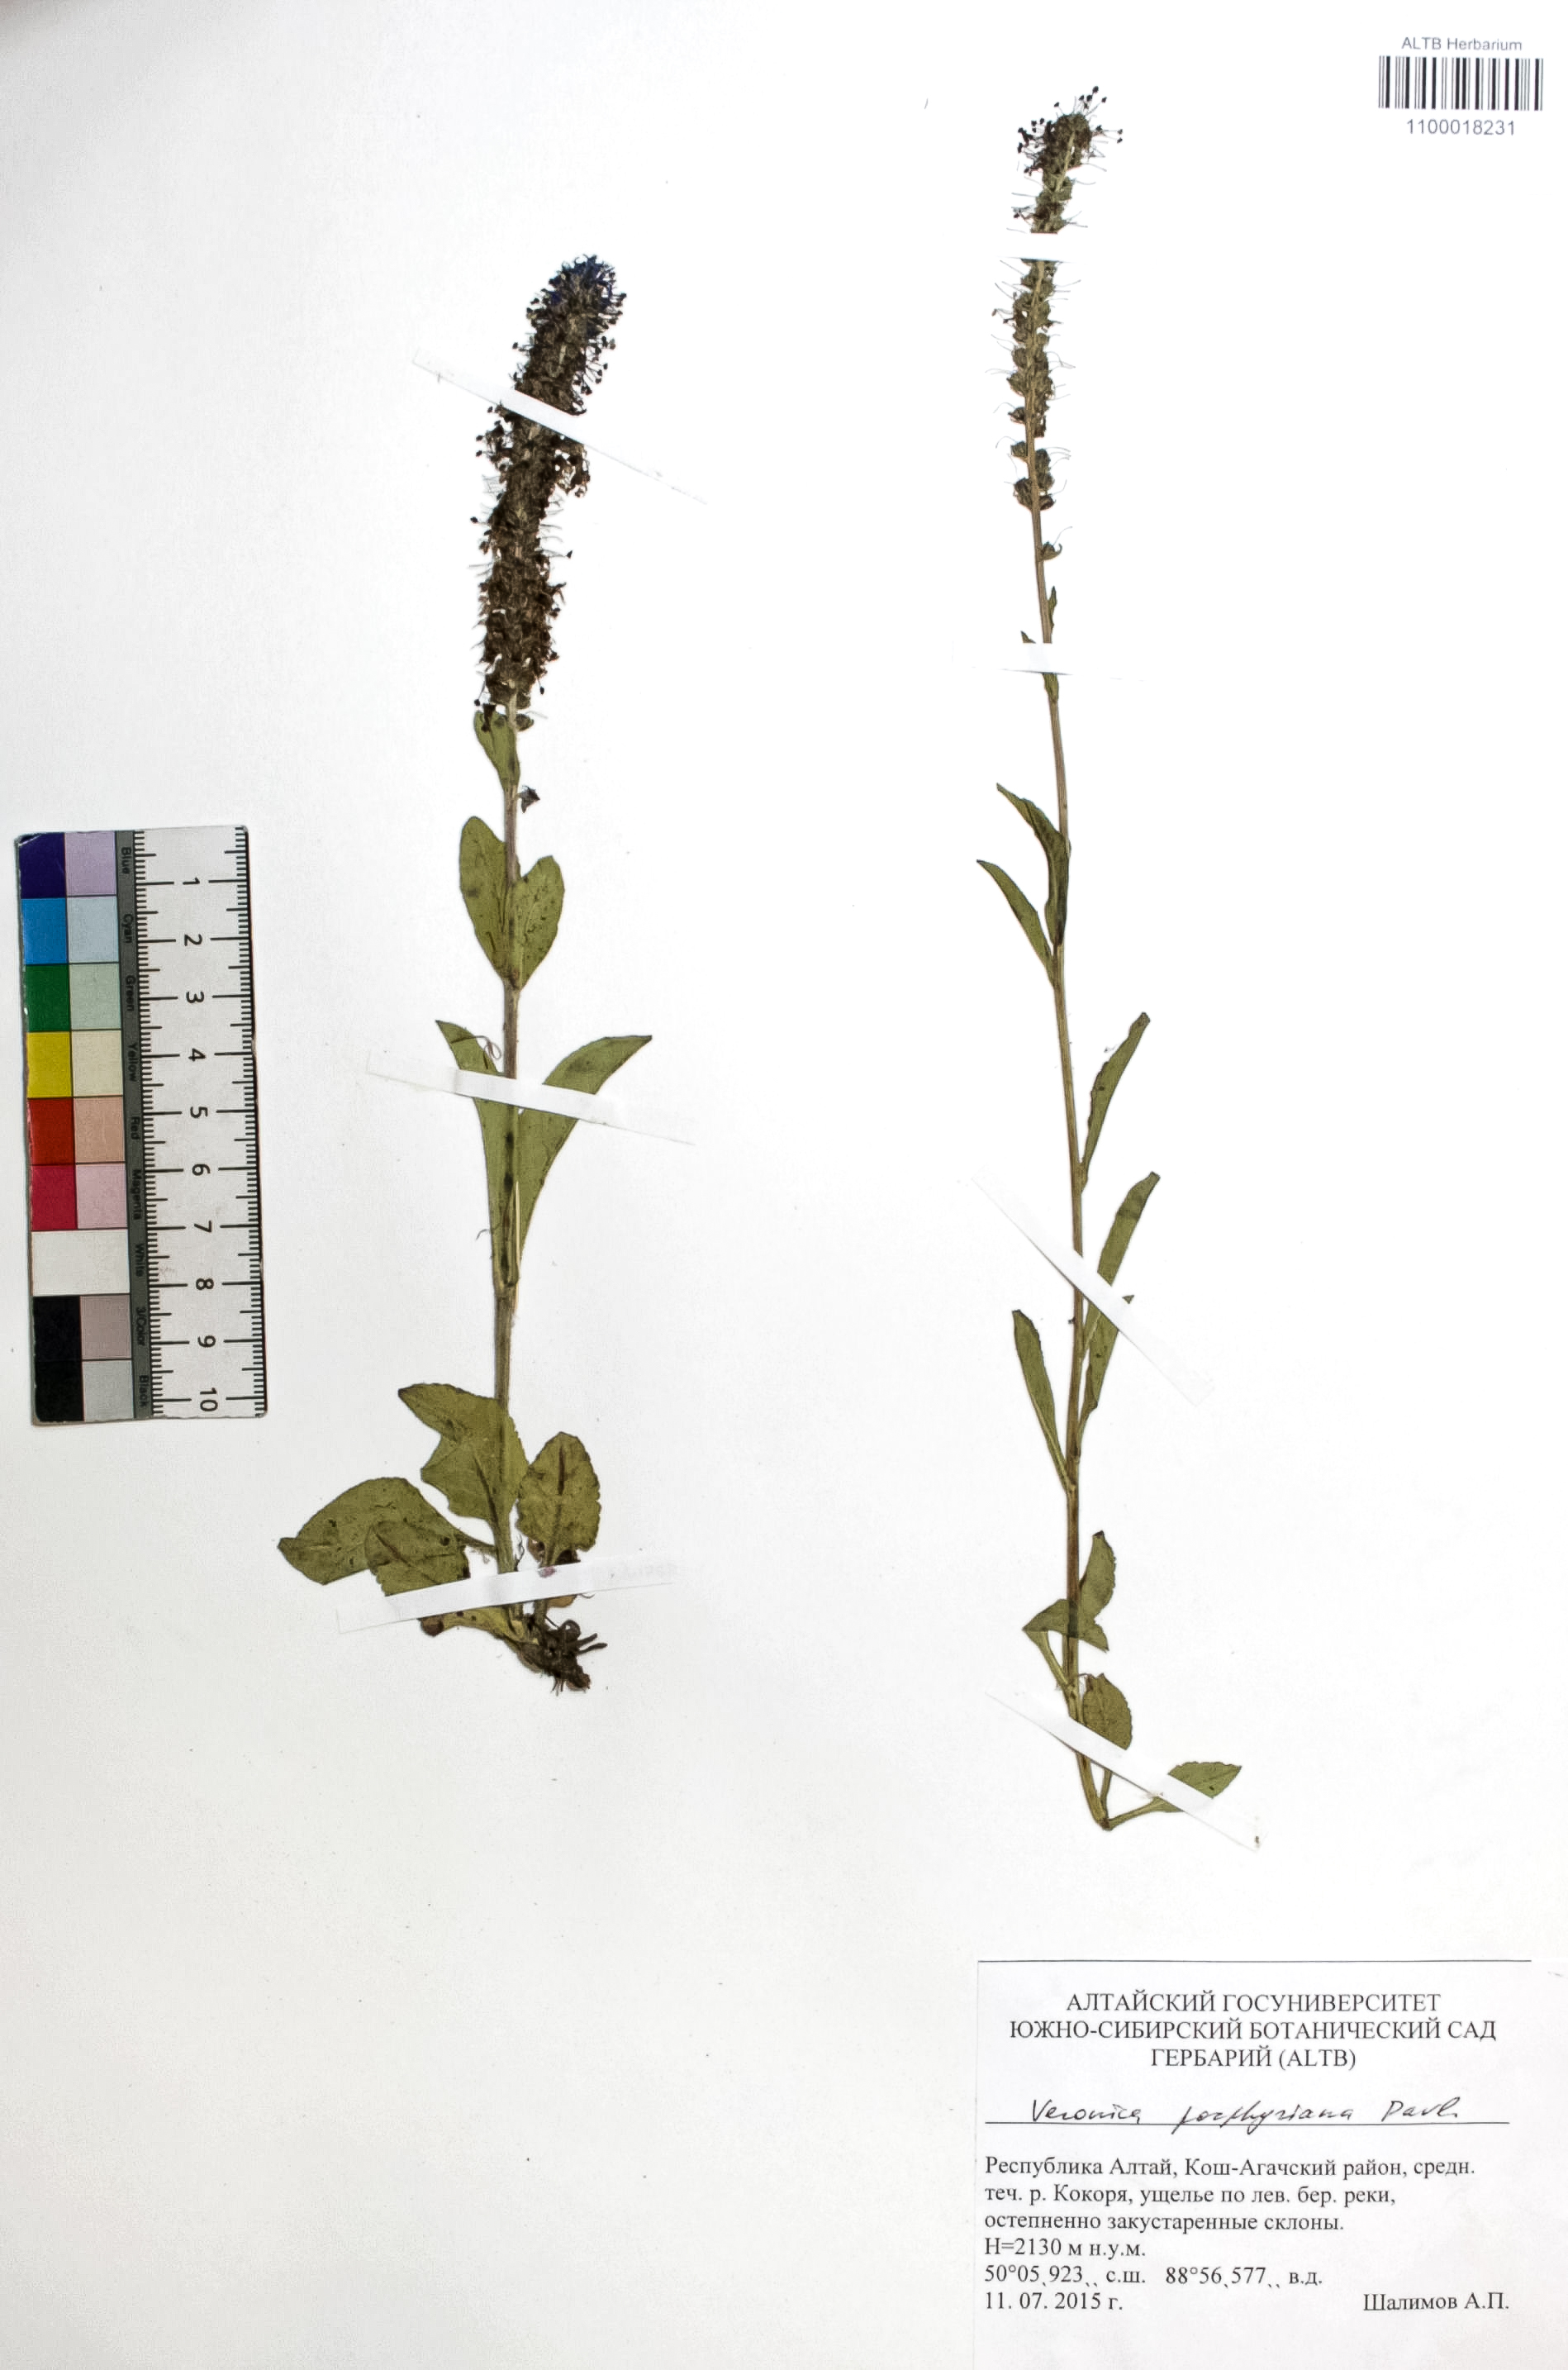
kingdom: Plantae
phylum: Tracheophyta
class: Magnoliopsida
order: Lamiales
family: Plantaginaceae
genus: Veronica
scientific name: Veronica porphyriana
